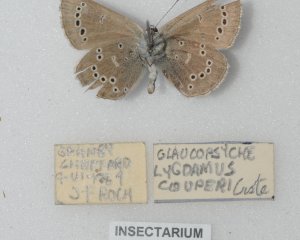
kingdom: Animalia
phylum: Arthropoda
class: Insecta
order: Lepidoptera
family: Lycaenidae
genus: Glaucopsyche
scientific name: Glaucopsyche lygdamus
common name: Silvery Blue
